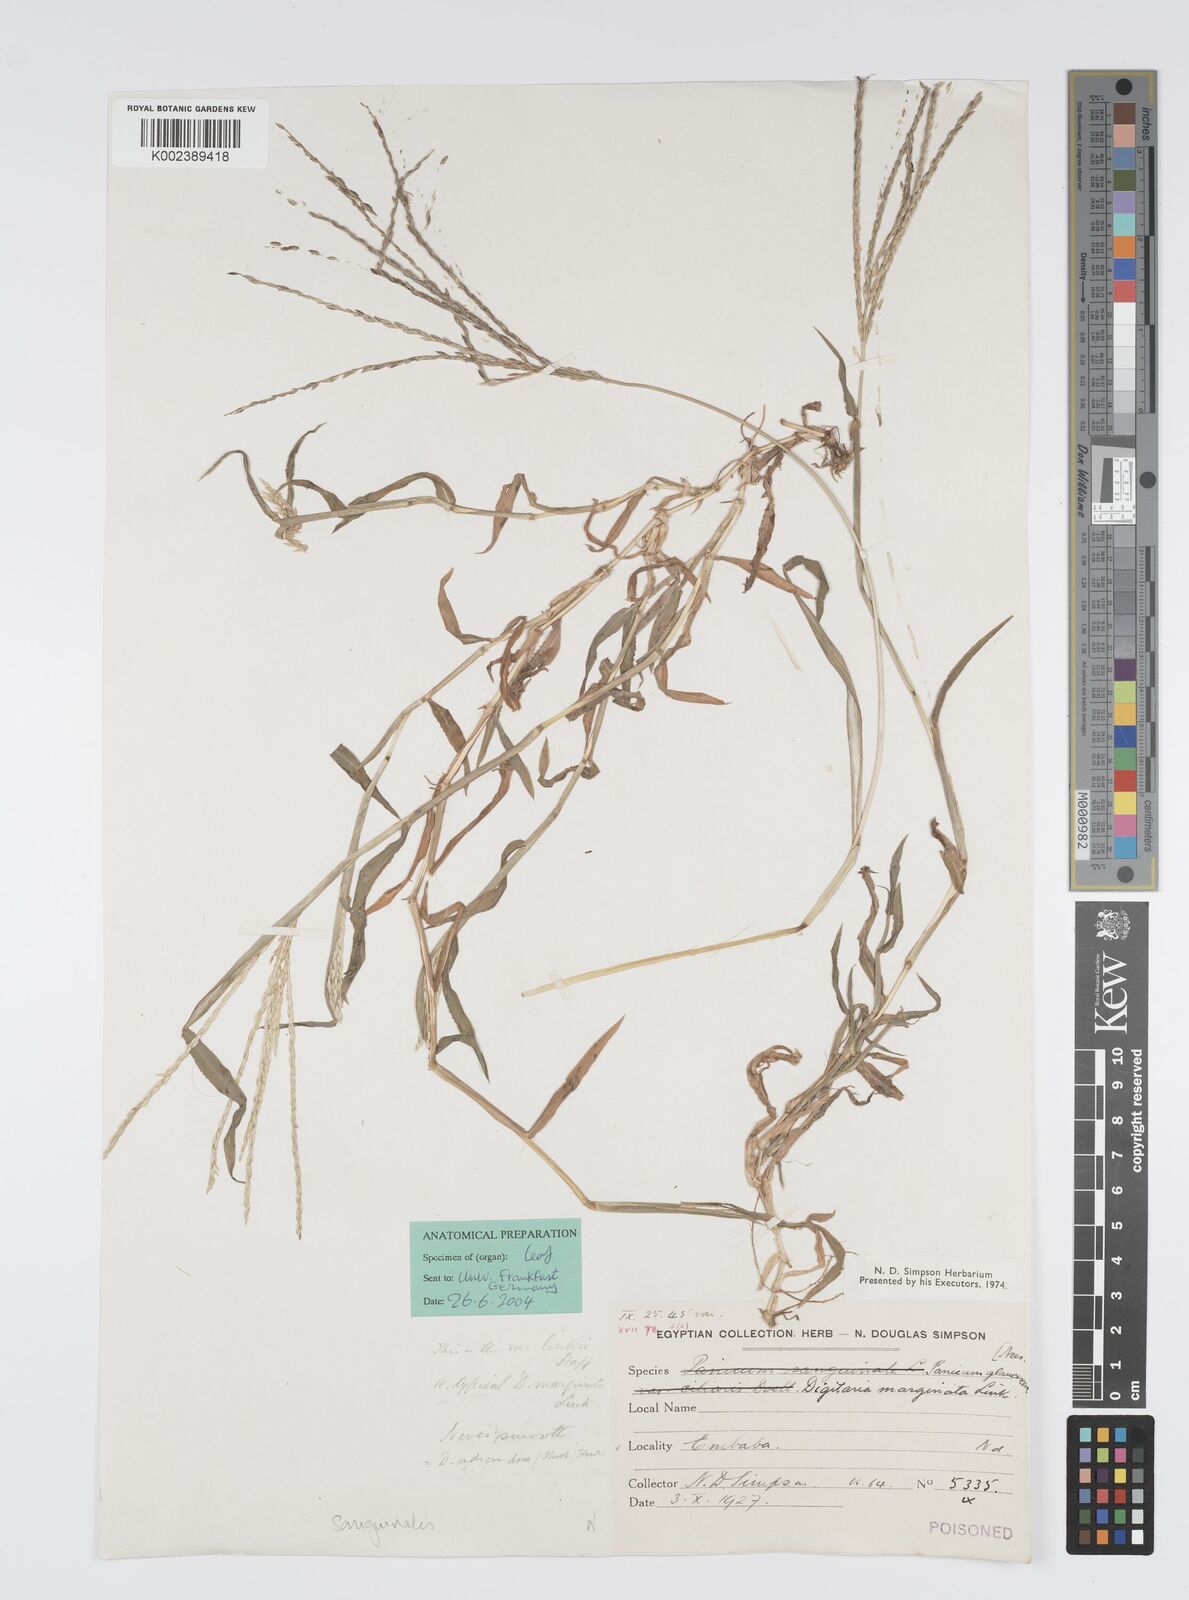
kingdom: Plantae
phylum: Tracheophyta
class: Liliopsida
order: Poales
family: Poaceae
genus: Digitaria
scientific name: Digitaria sanguinalis
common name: Hairy crabgrass
